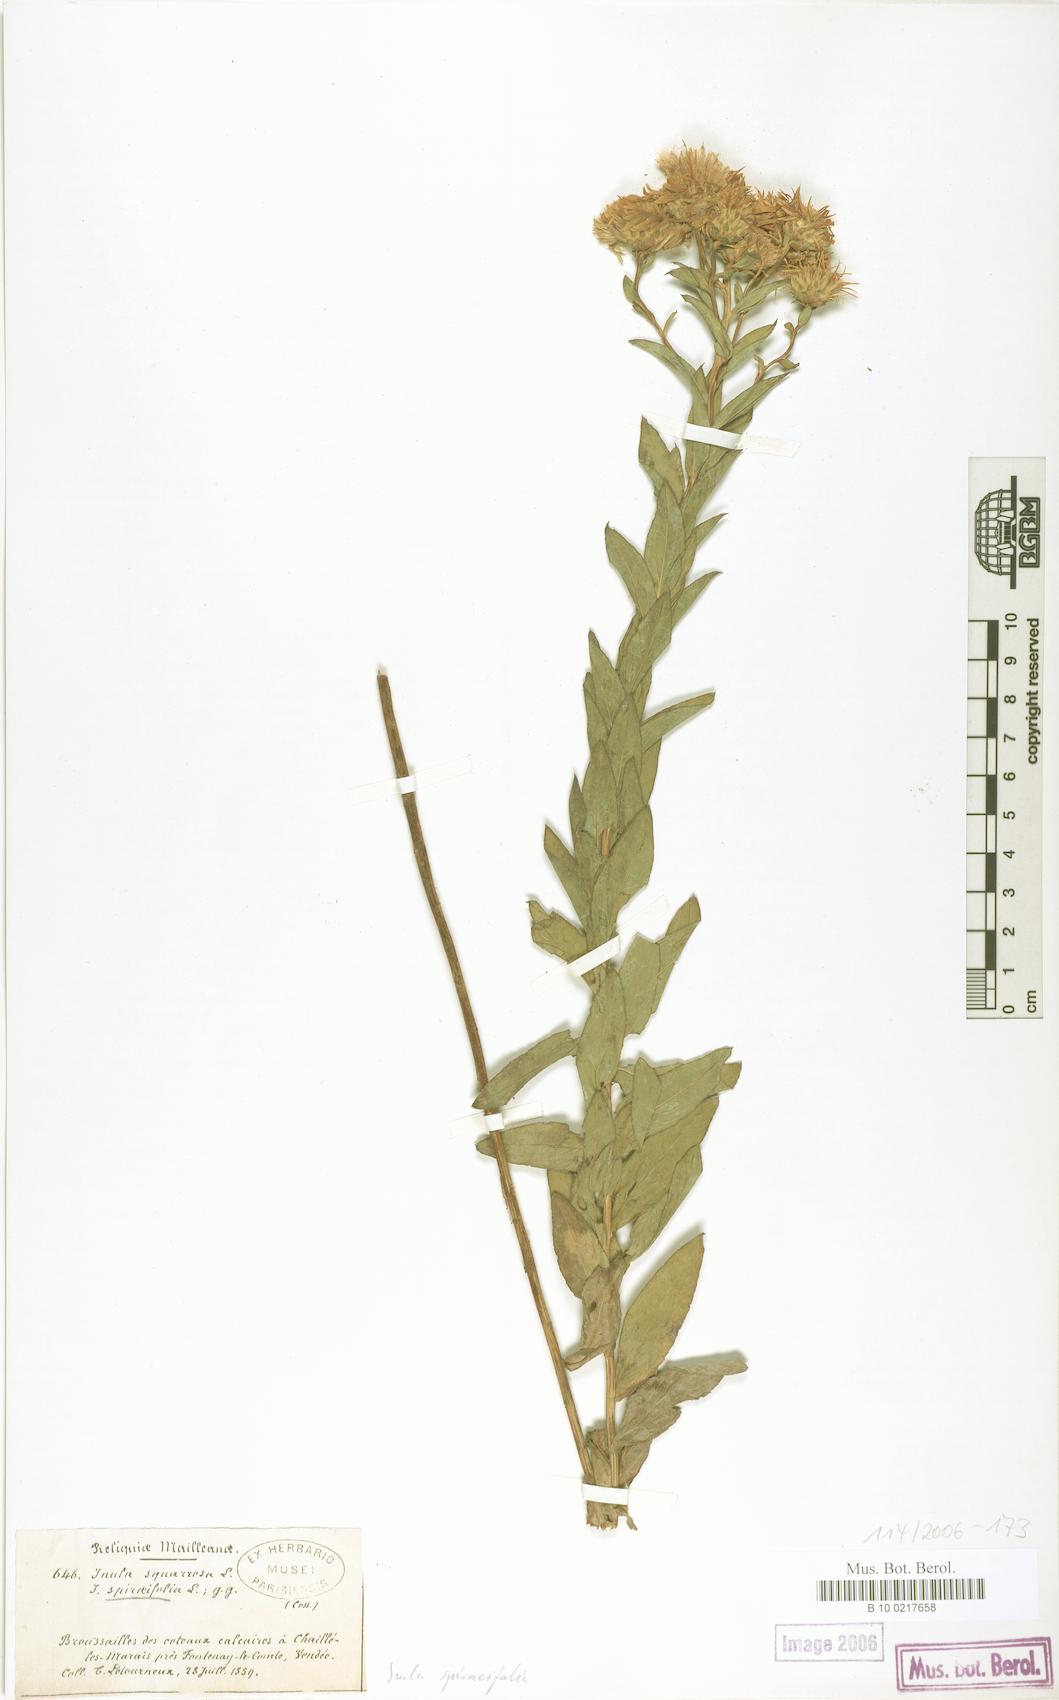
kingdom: Plantae
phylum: Tracheophyta
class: Magnoliopsida
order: Asterales
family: Asteraceae
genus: Pentanema
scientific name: Pentanema spiraeifolium
